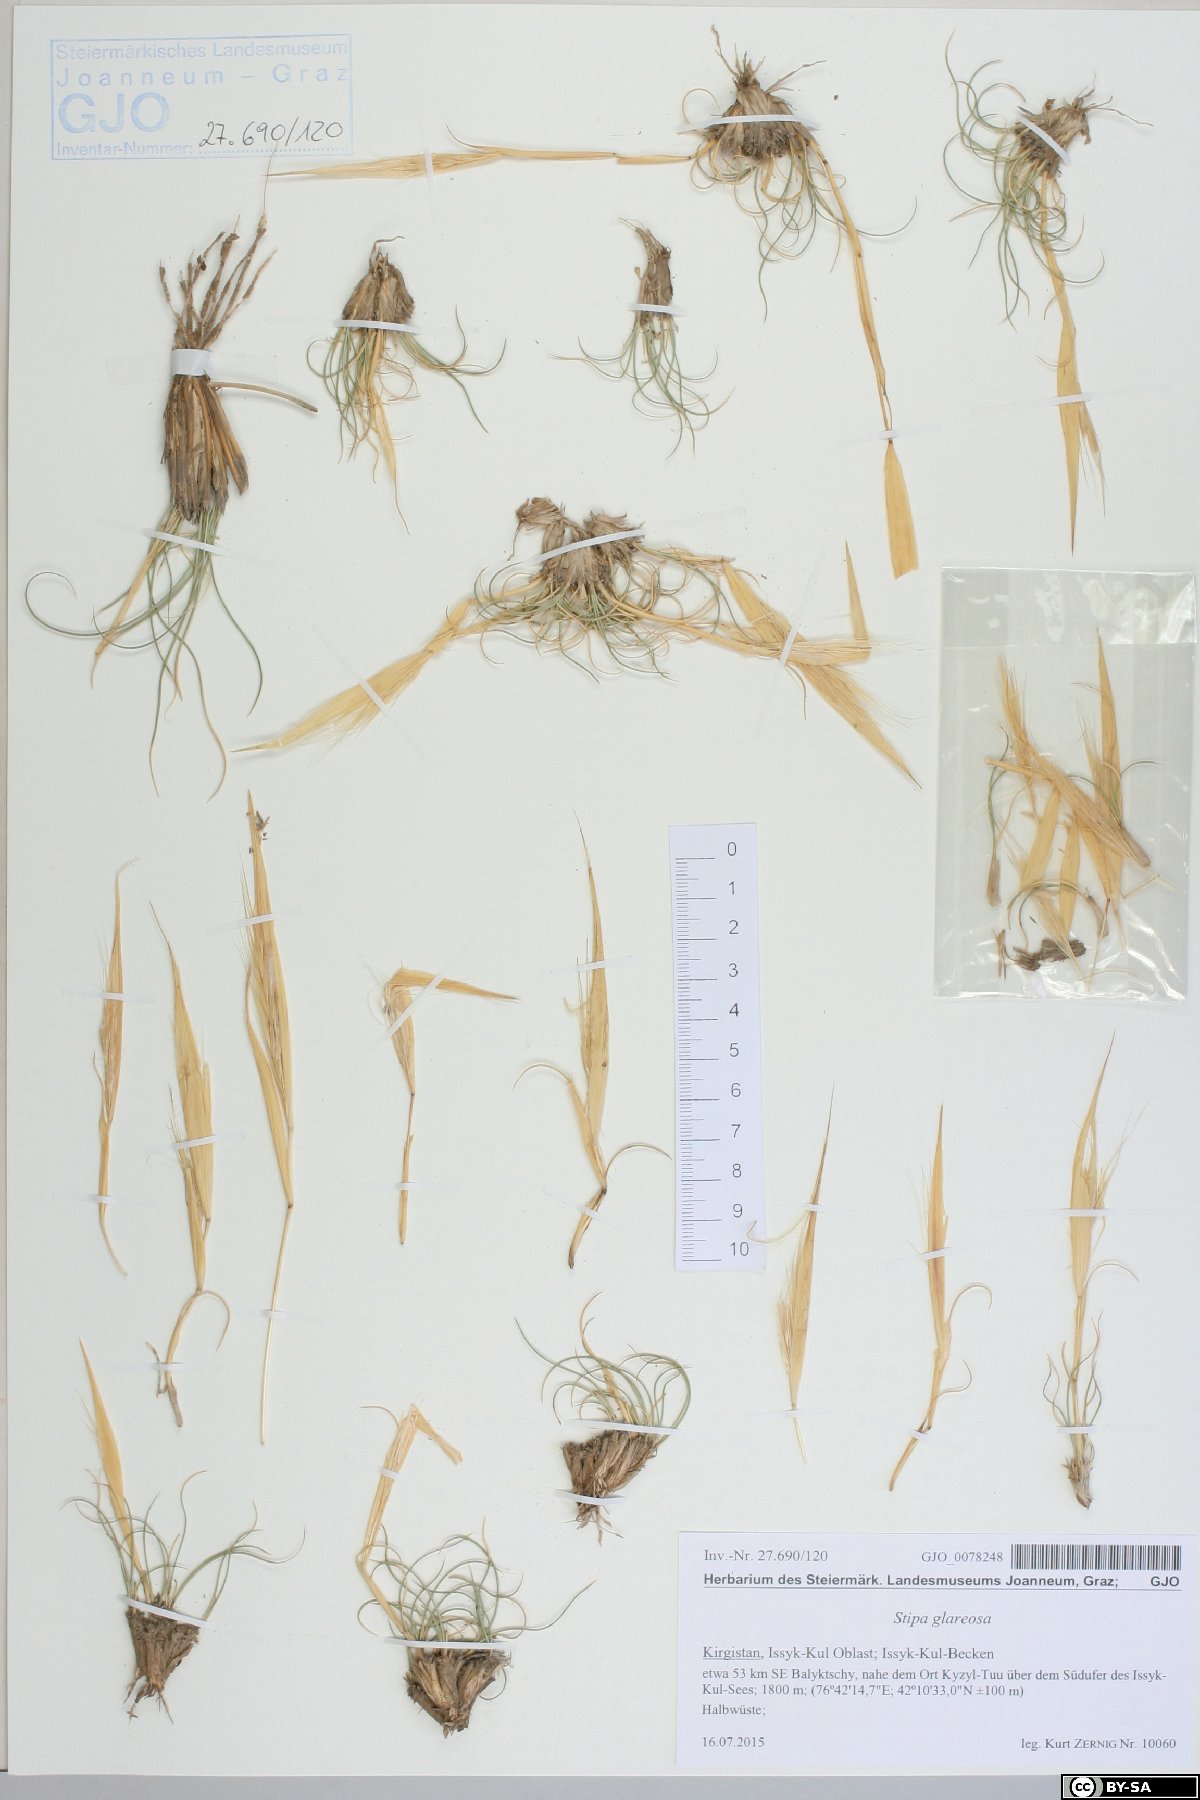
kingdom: Plantae
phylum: Tracheophyta
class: Liliopsida
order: Poales
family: Poaceae
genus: Stipa
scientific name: Stipa glareosa
